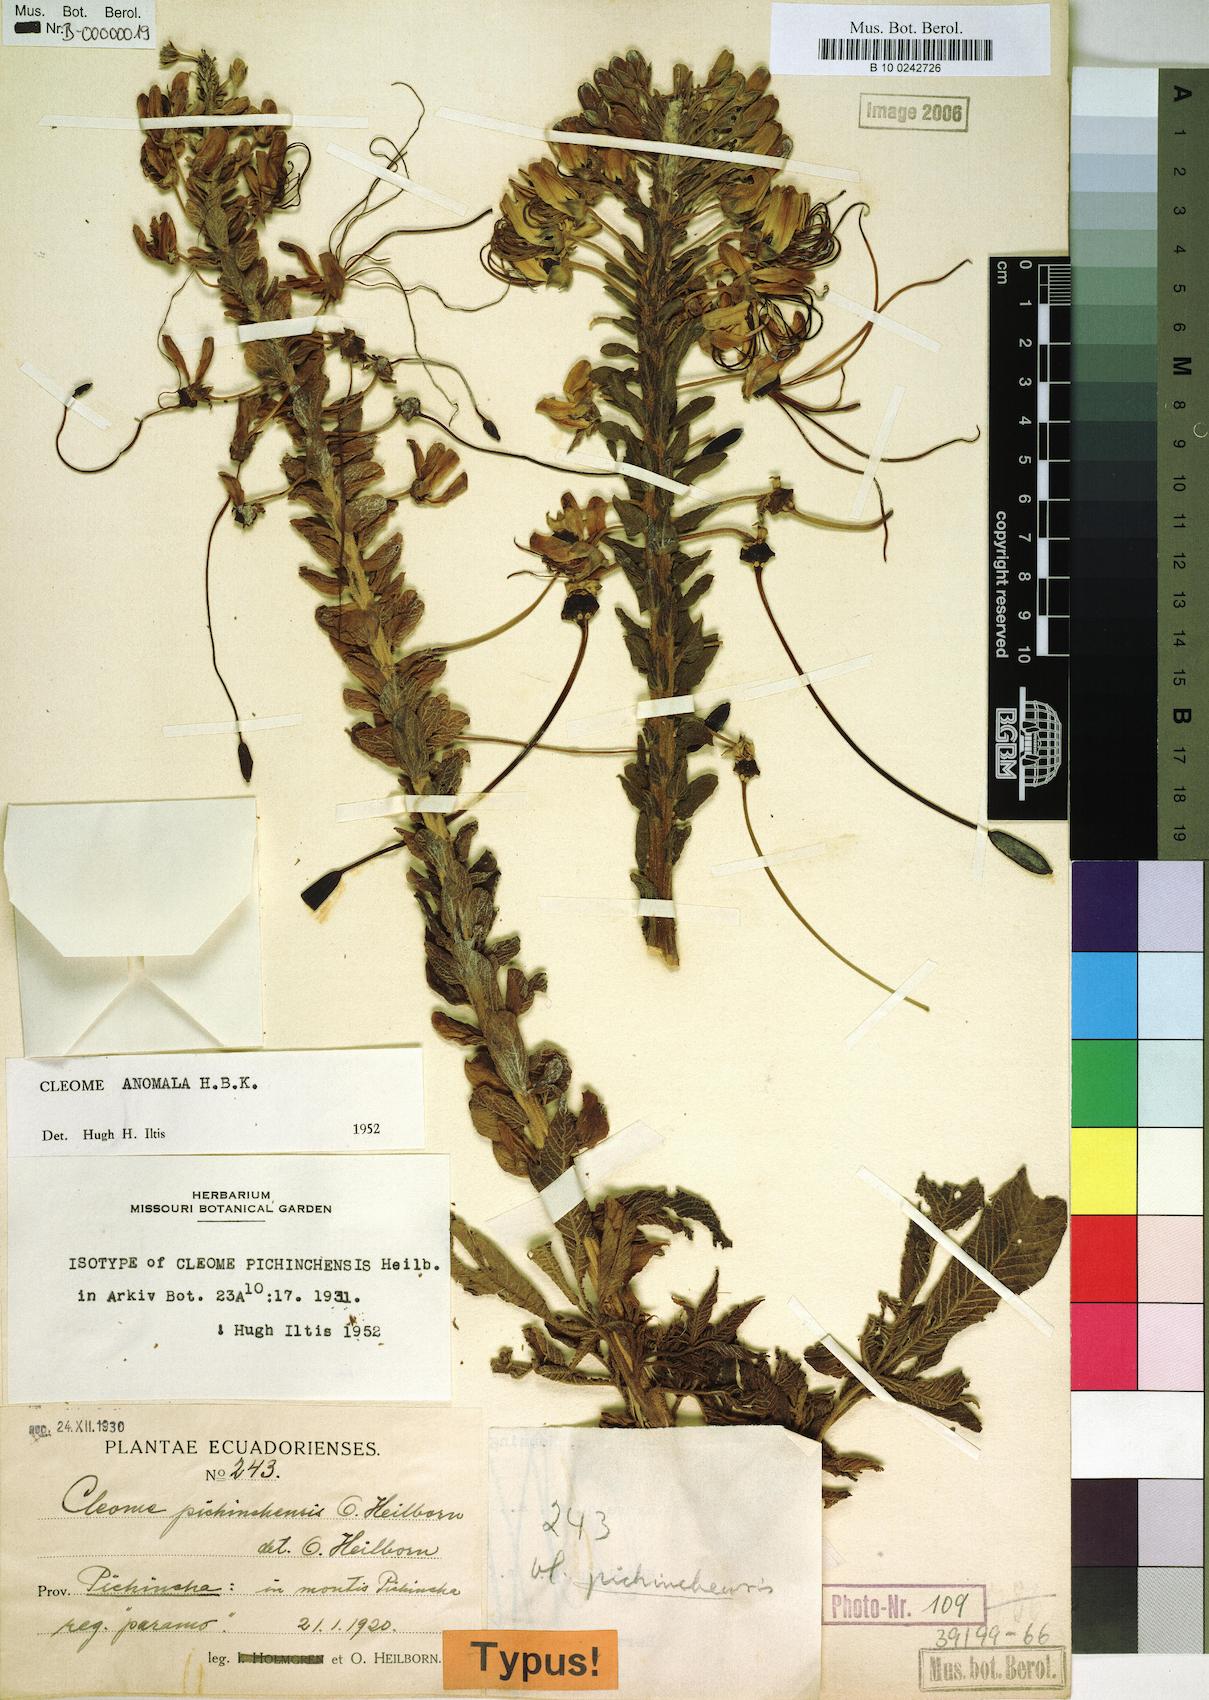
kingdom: Plantae
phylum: Tracheophyta
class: Magnoliopsida
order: Brassicales
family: Cleomaceae
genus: Andinocleome
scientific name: Andinocleome anomala
